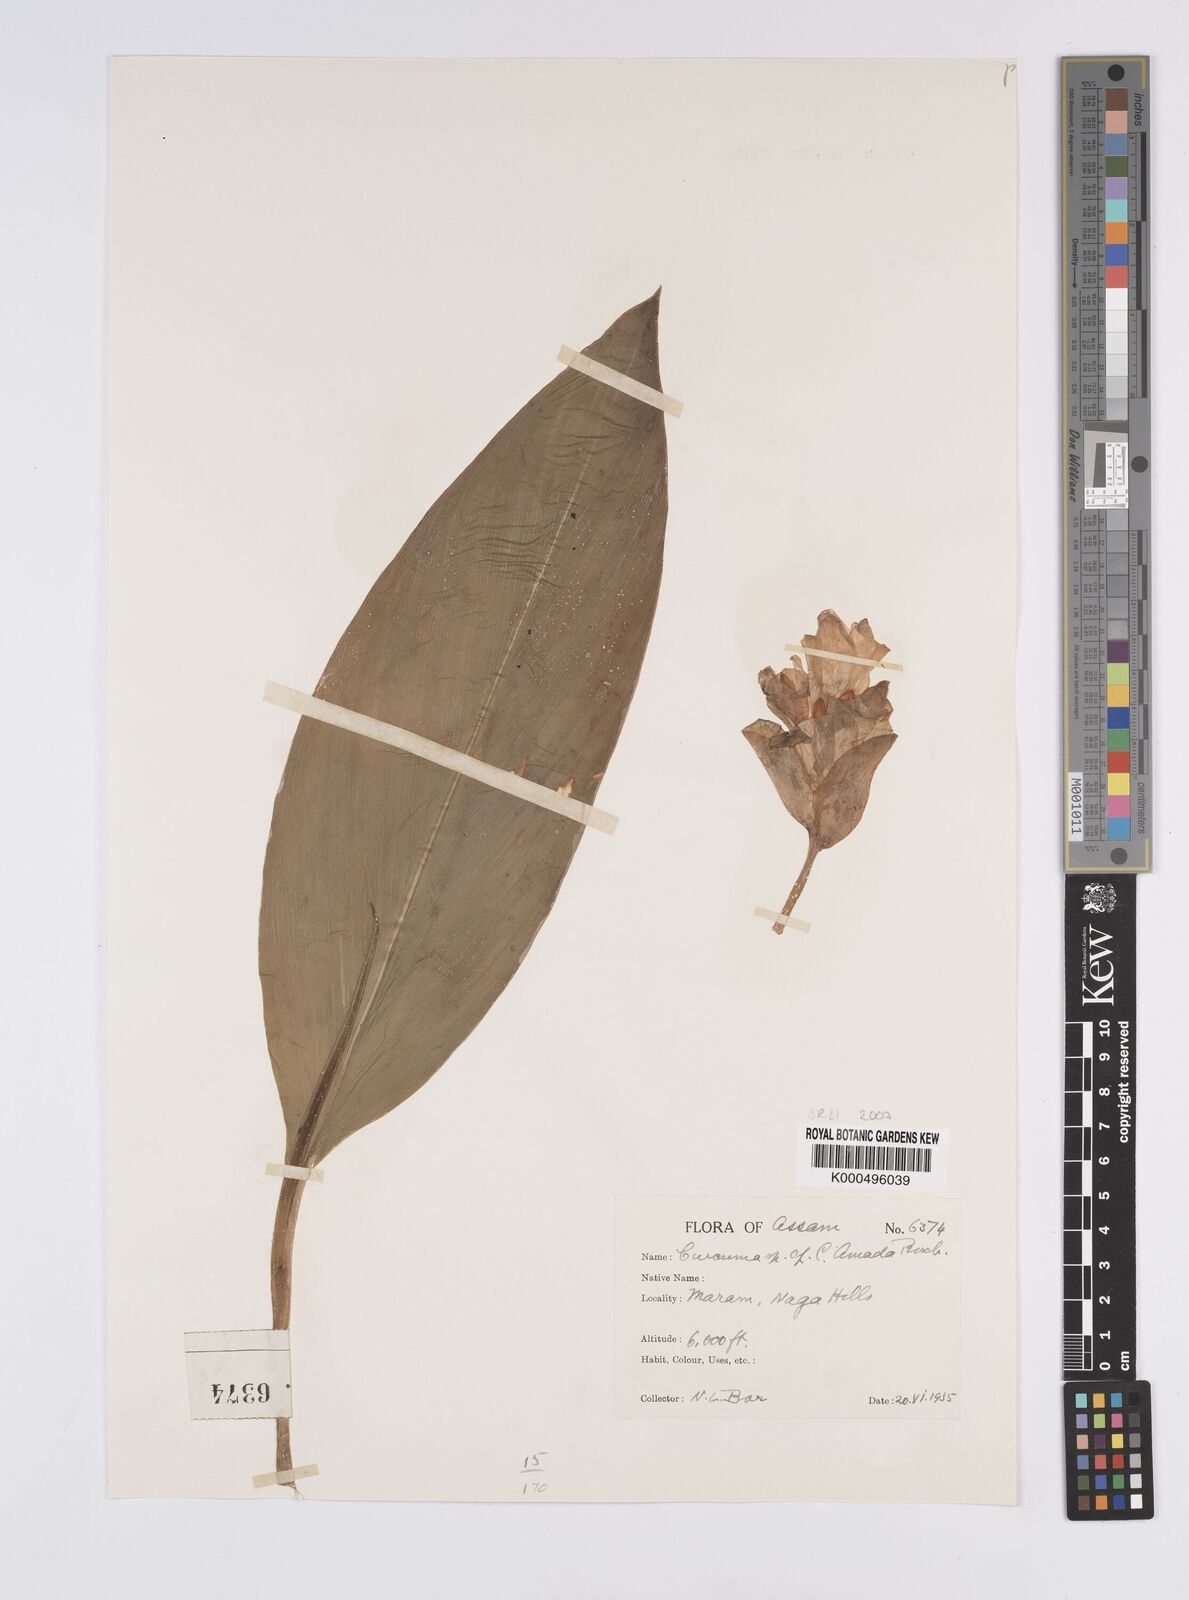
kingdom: Plantae
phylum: Tracheophyta
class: Liliopsida
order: Zingiberales
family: Zingiberaceae
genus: Curcuma
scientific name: Curcuma amada
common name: Mango-ginger
